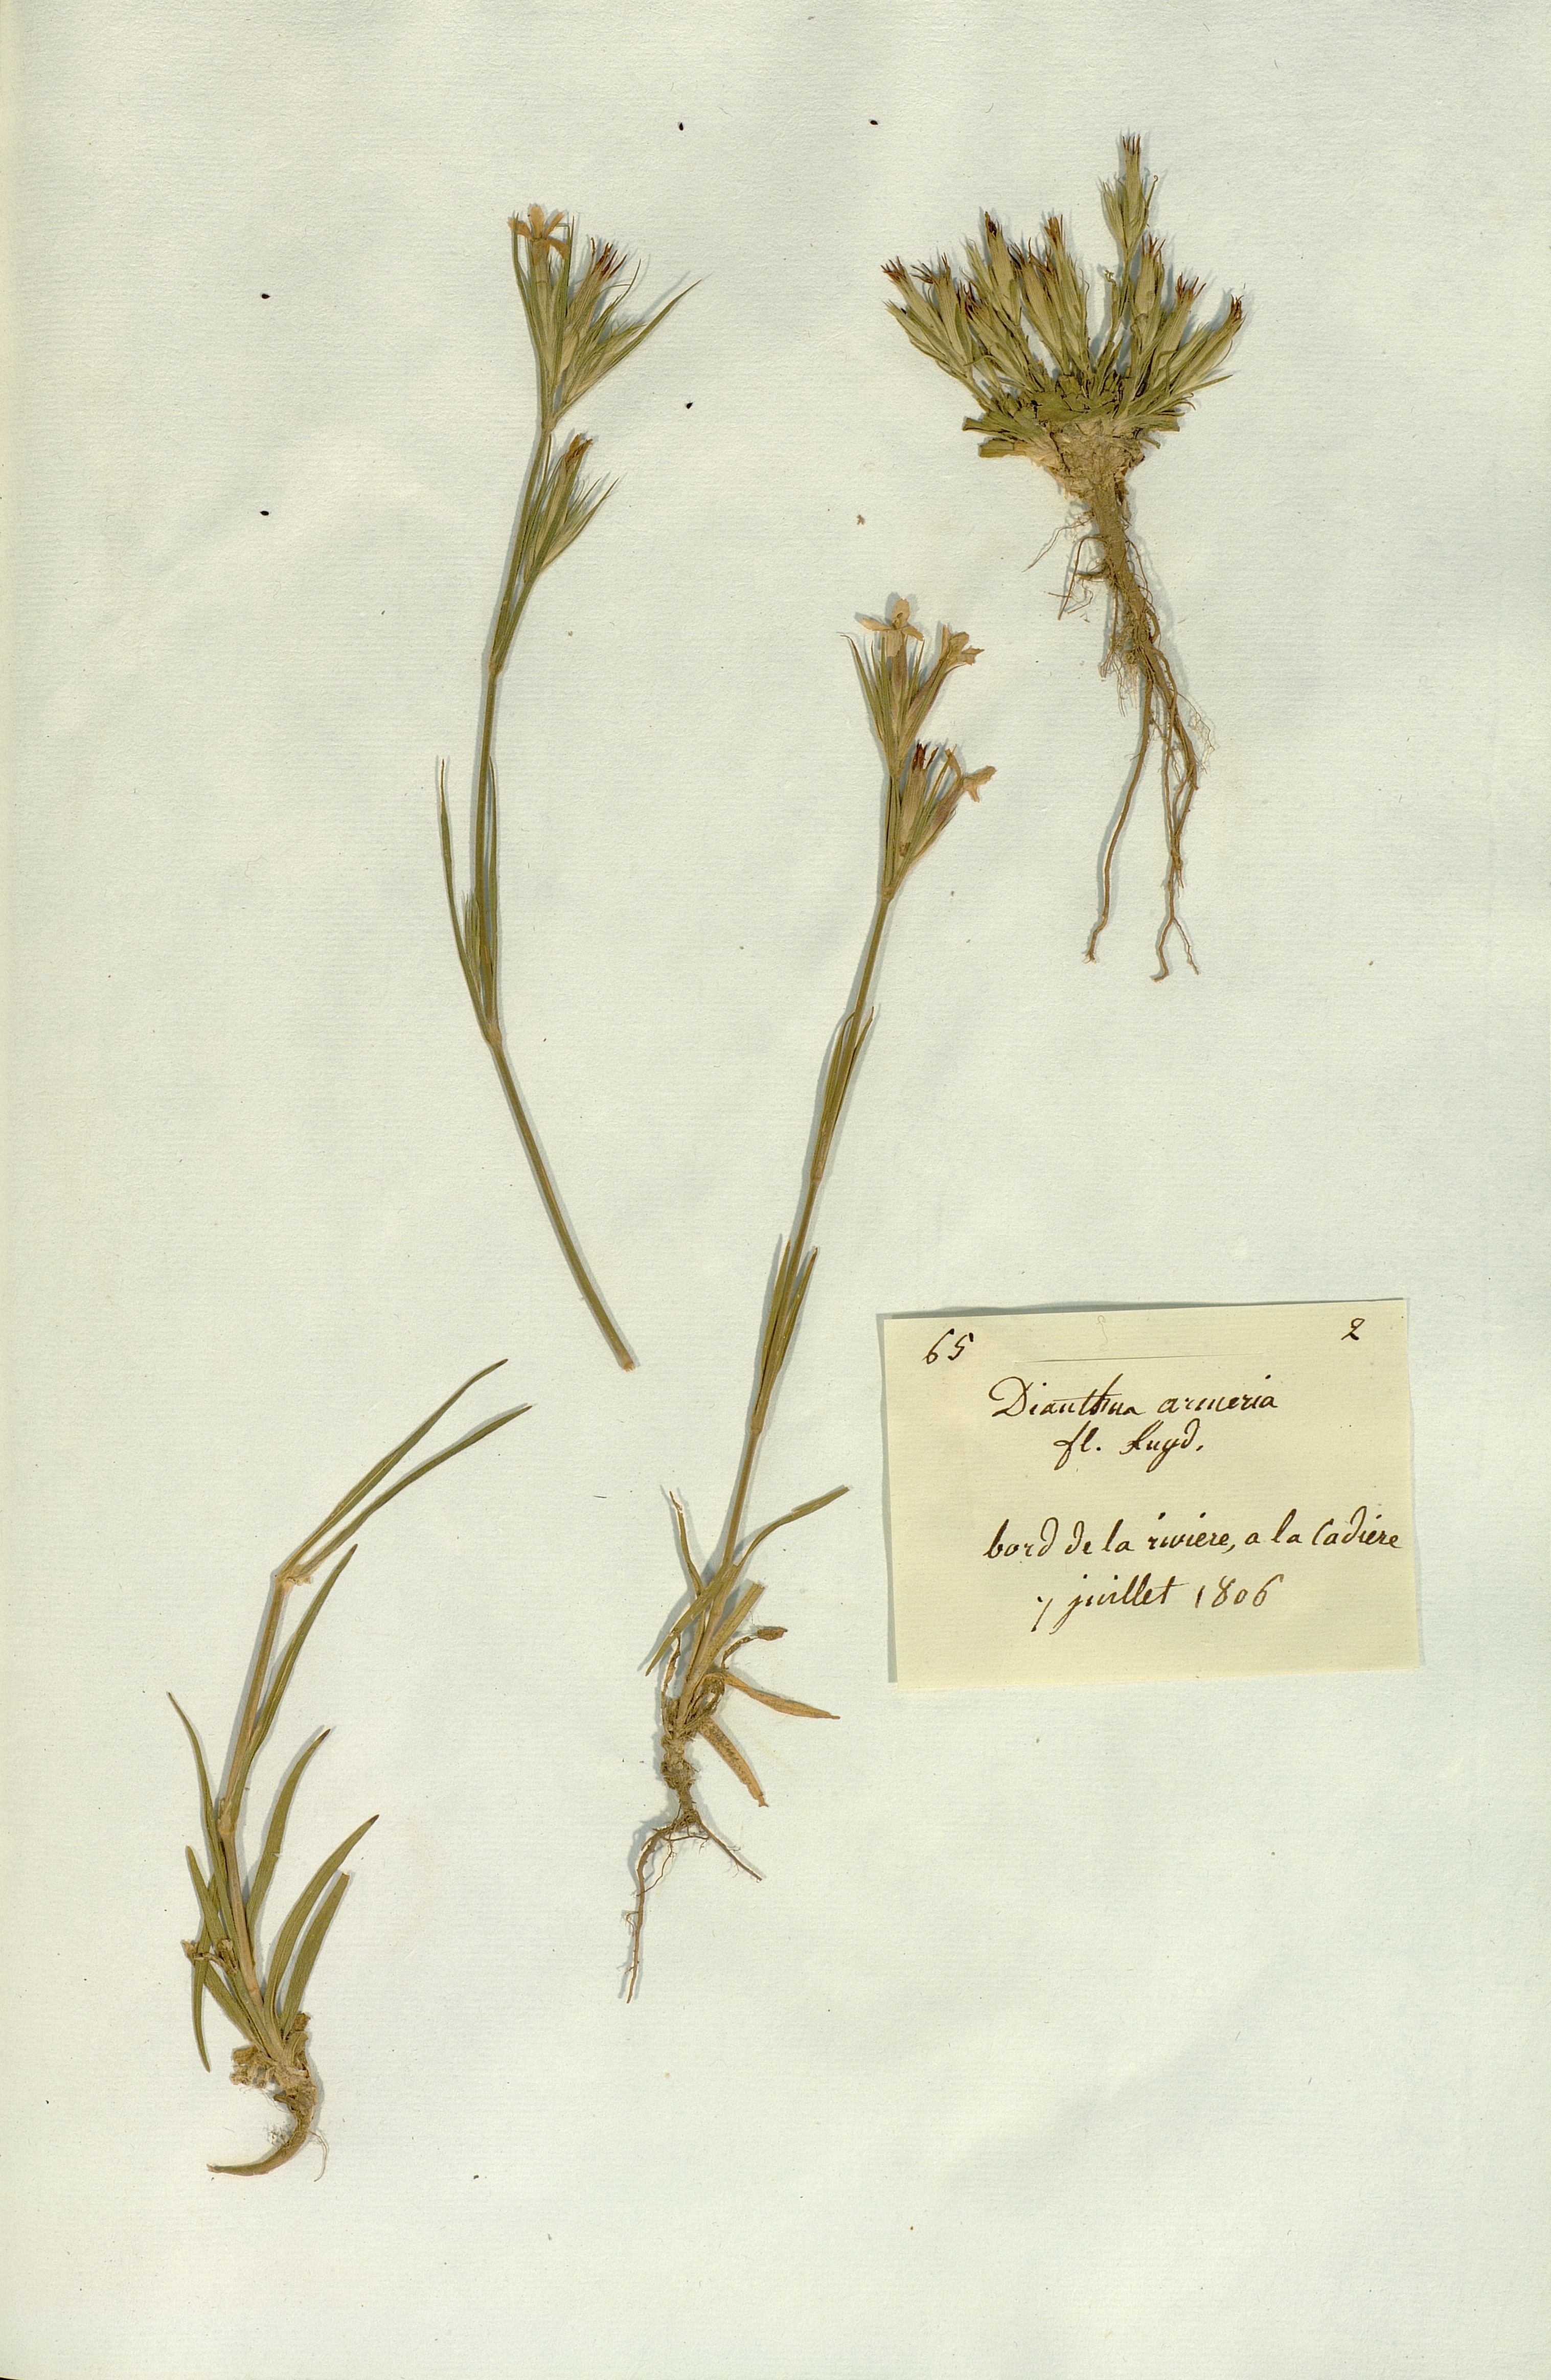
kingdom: Plantae
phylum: Tracheophyta
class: Magnoliopsida
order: Caryophyllales
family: Caryophyllaceae
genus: Dianthus
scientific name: Dianthus armeria
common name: Deptford pink
